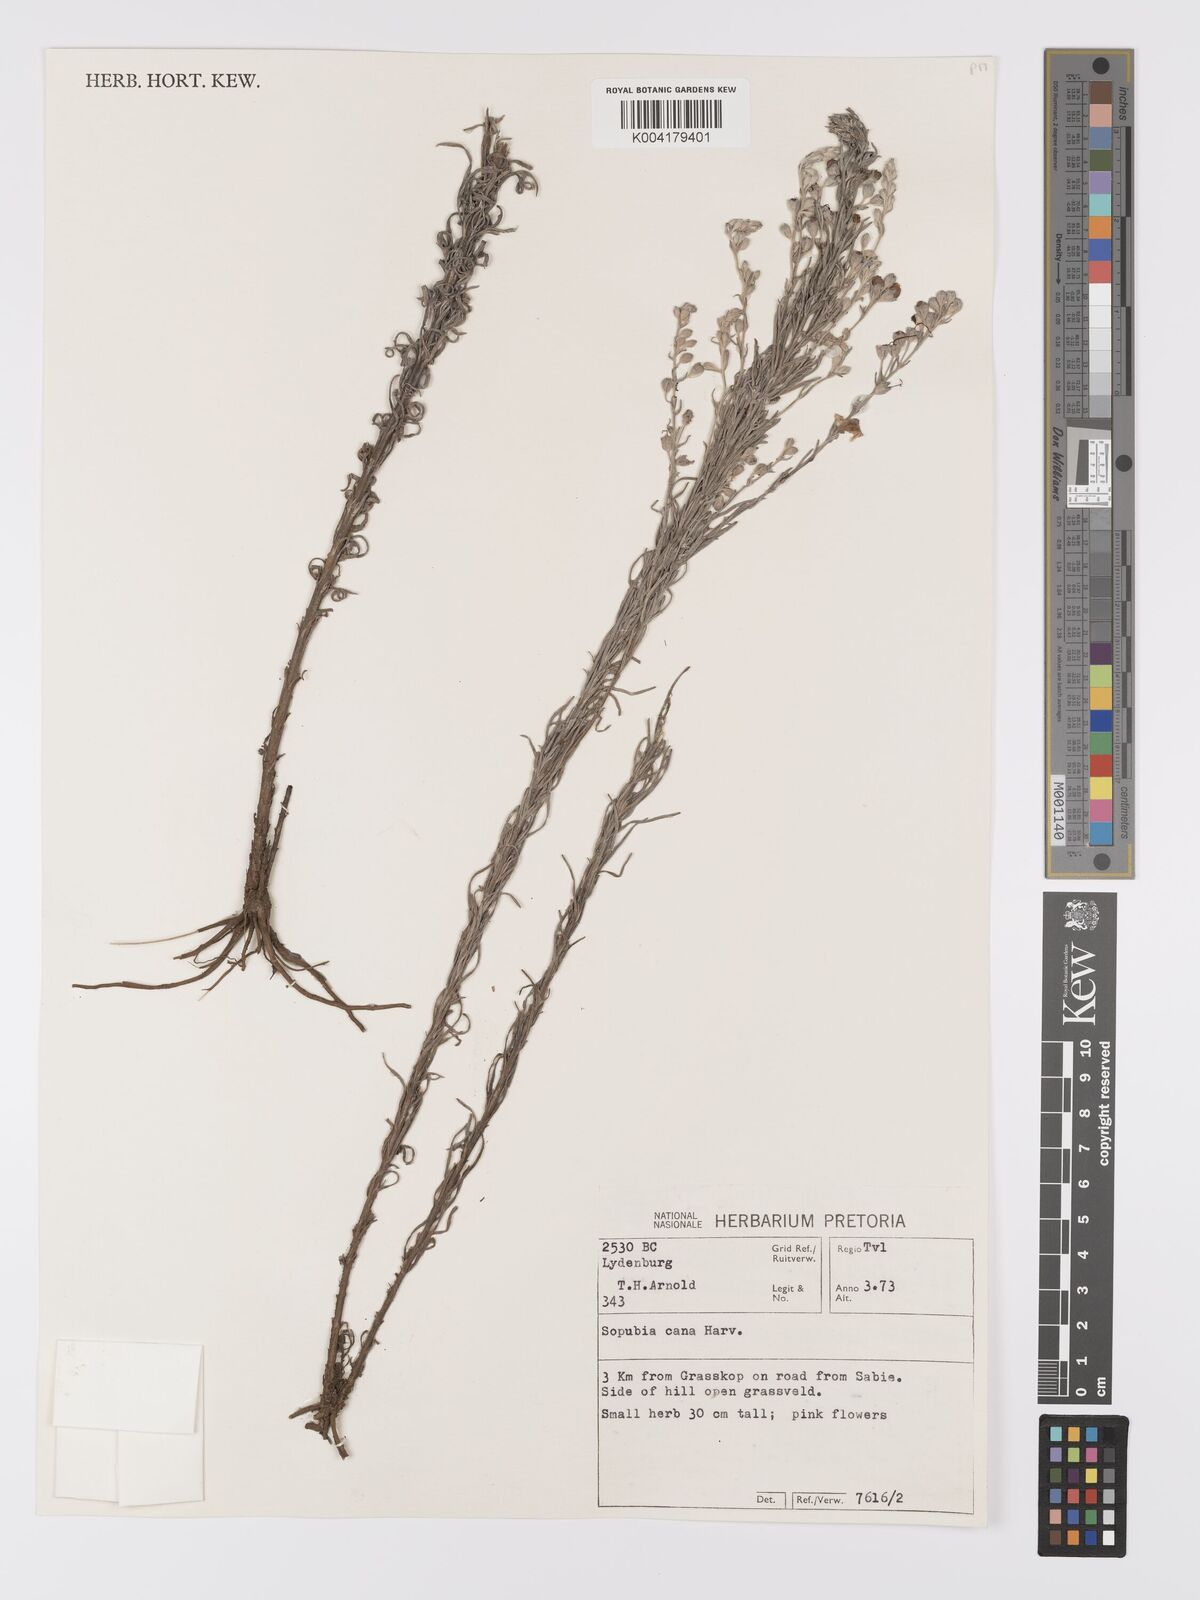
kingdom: Plantae
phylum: Tracheophyta
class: Magnoliopsida
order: Lamiales
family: Orobanchaceae
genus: Sopubia
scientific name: Sopubia cana
